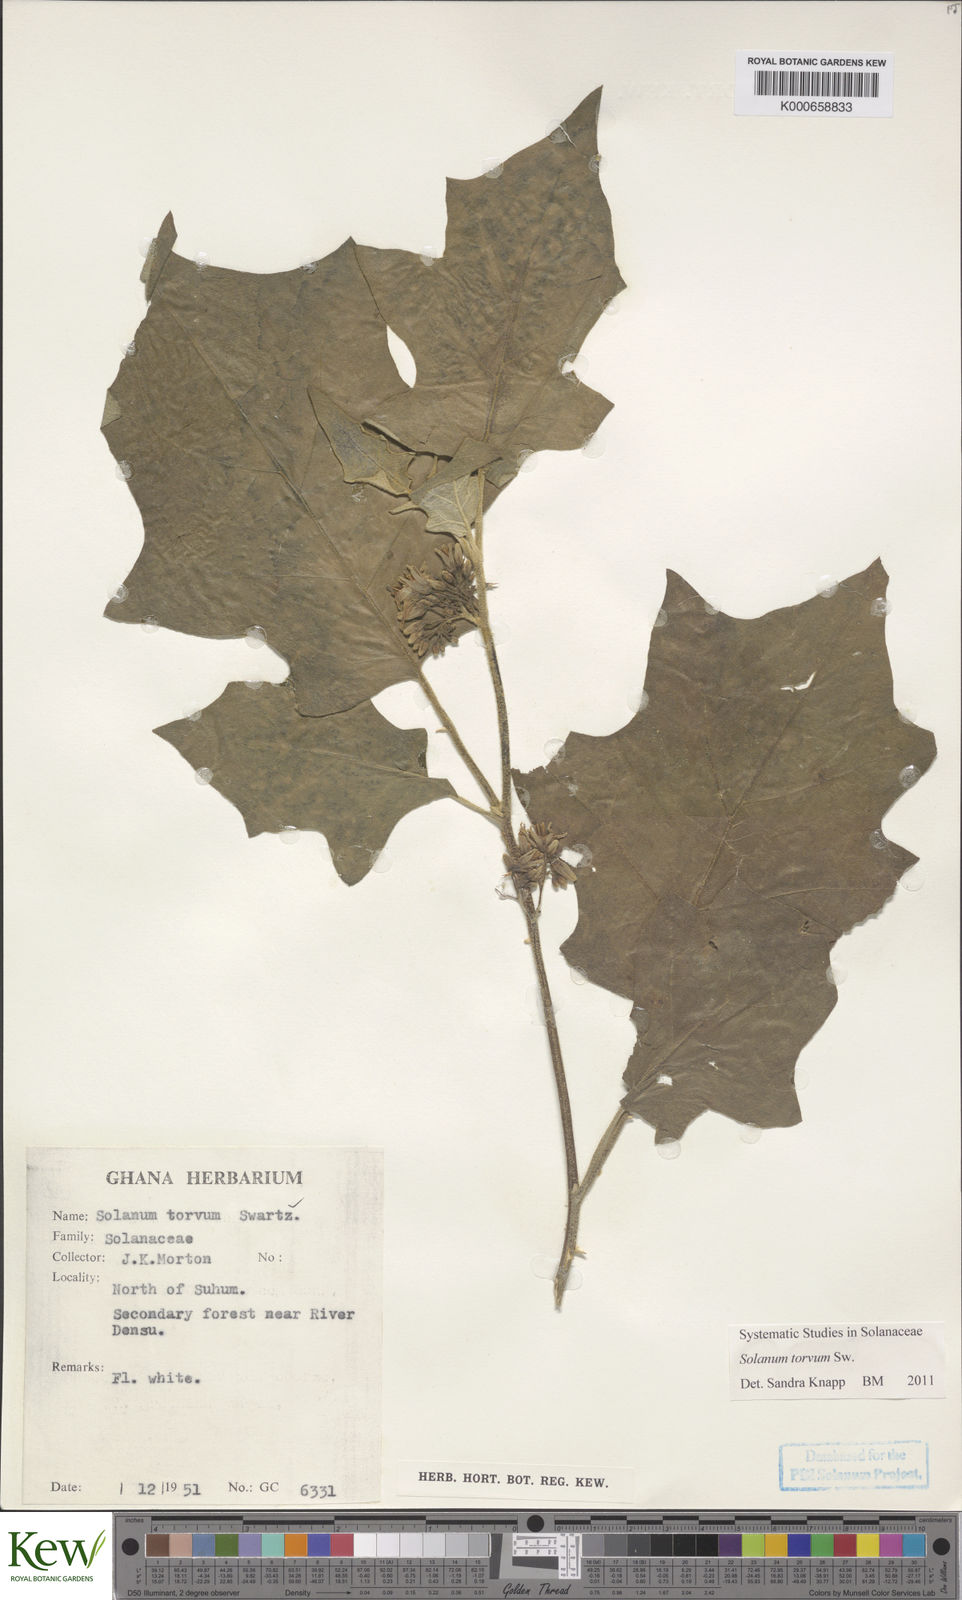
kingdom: Plantae
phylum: Tracheophyta
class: Magnoliopsida
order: Solanales
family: Solanaceae
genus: Solanum
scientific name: Solanum torvum
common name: Turkey berry
